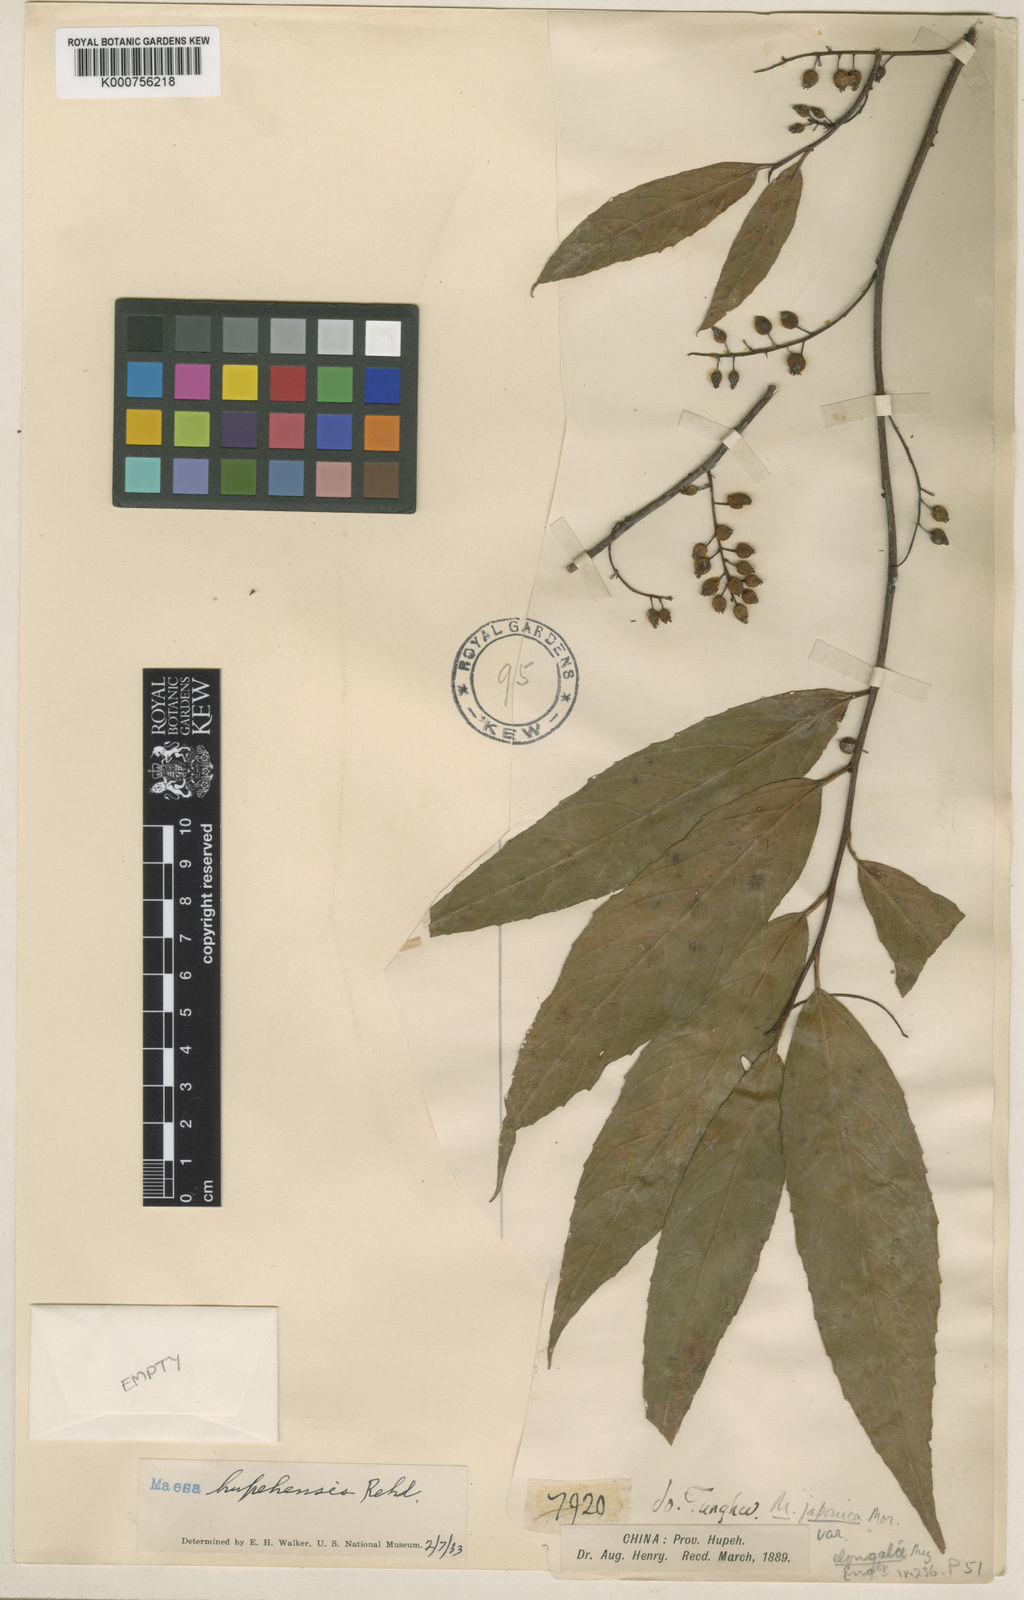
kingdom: Plantae
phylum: Tracheophyta
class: Magnoliopsida
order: Ericales
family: Primulaceae
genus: Maesa
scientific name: Maesa hupehensis
